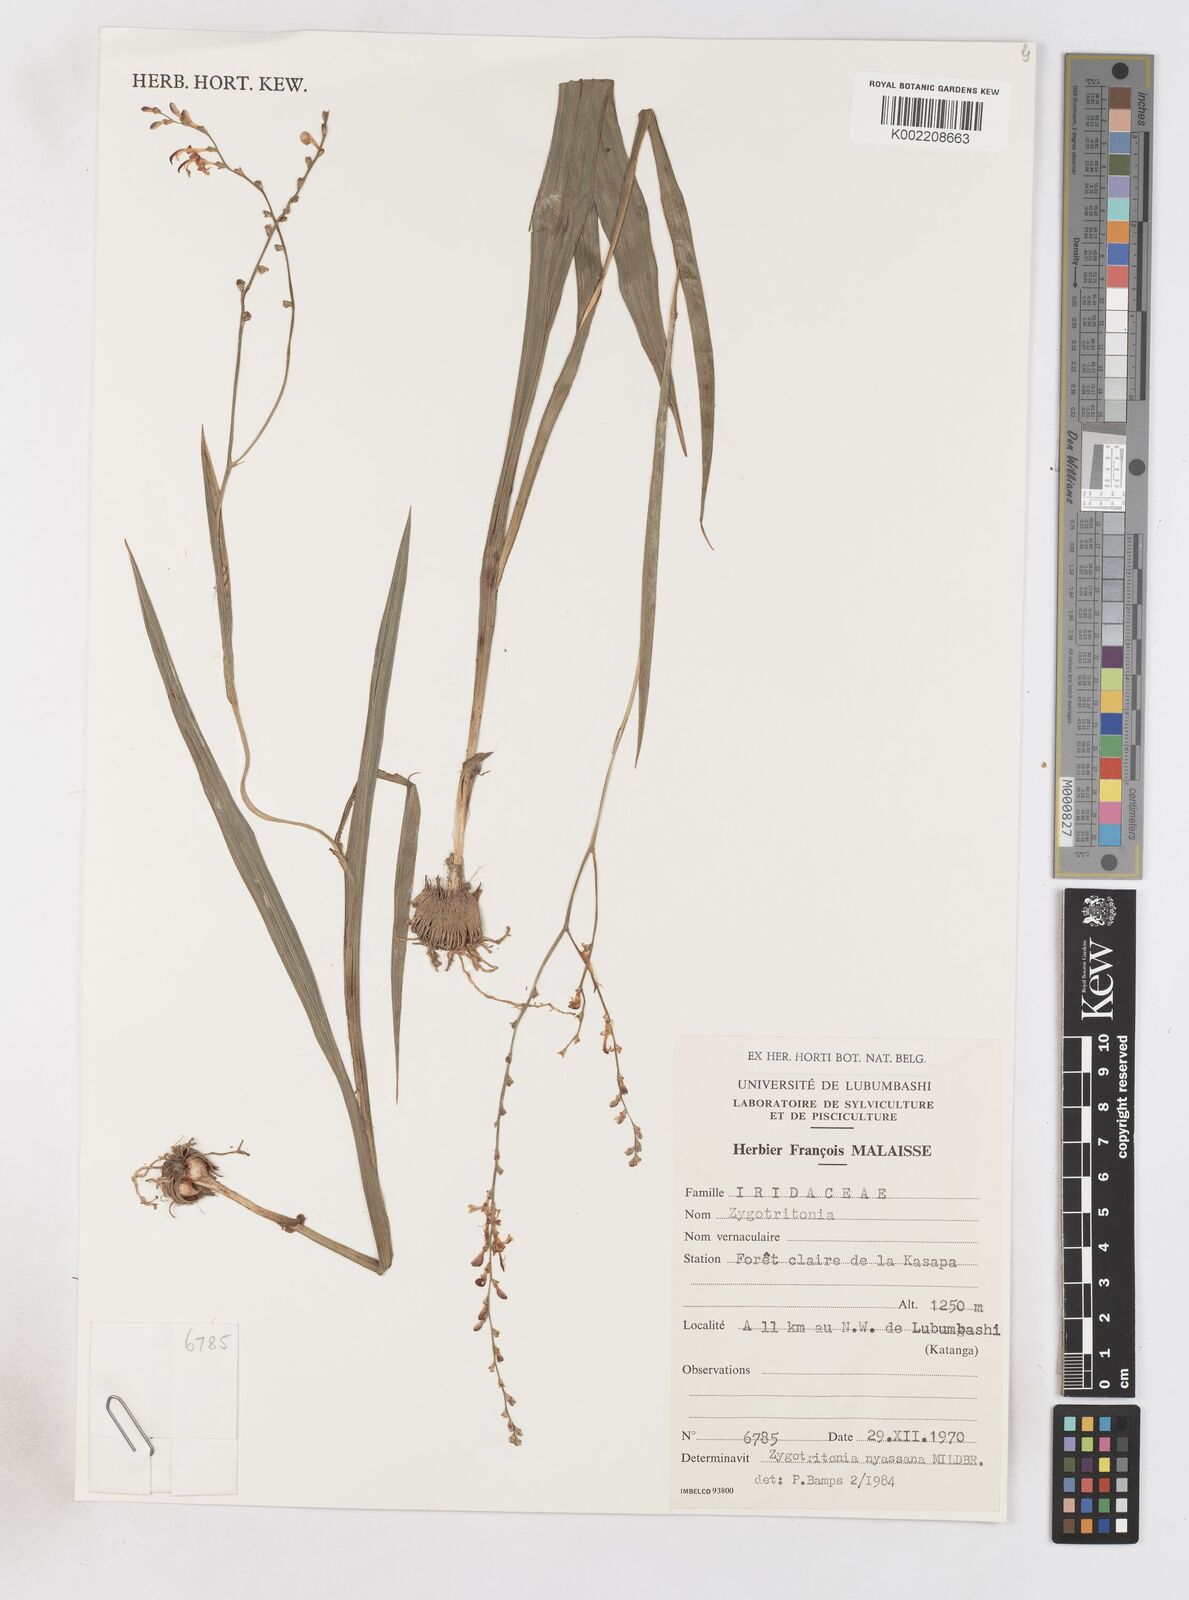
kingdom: Plantae
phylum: Tracheophyta
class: Liliopsida
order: Asparagales
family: Iridaceae
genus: Zygotritonia
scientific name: Zygotritonia nyassana
